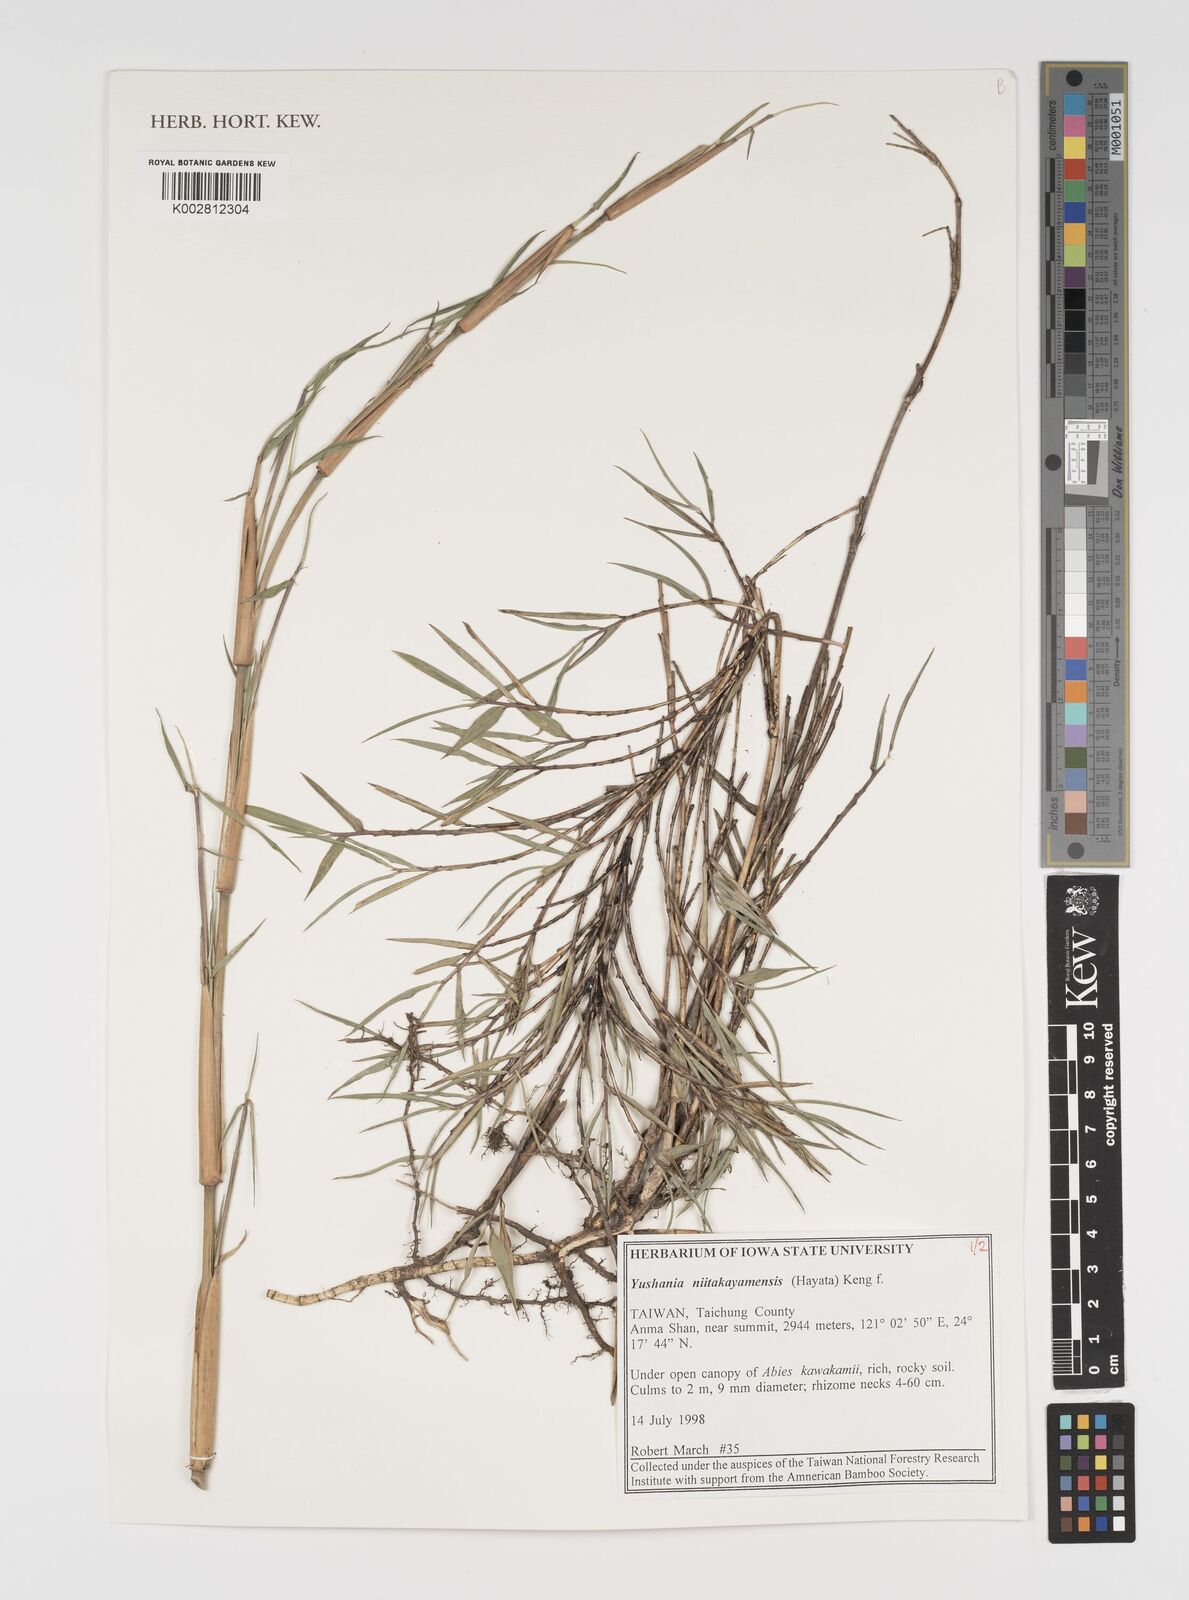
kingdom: Plantae
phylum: Tracheophyta
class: Liliopsida
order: Poales
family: Poaceae
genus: Yushania
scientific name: Yushania niitakayamensis
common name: Yushan cane
